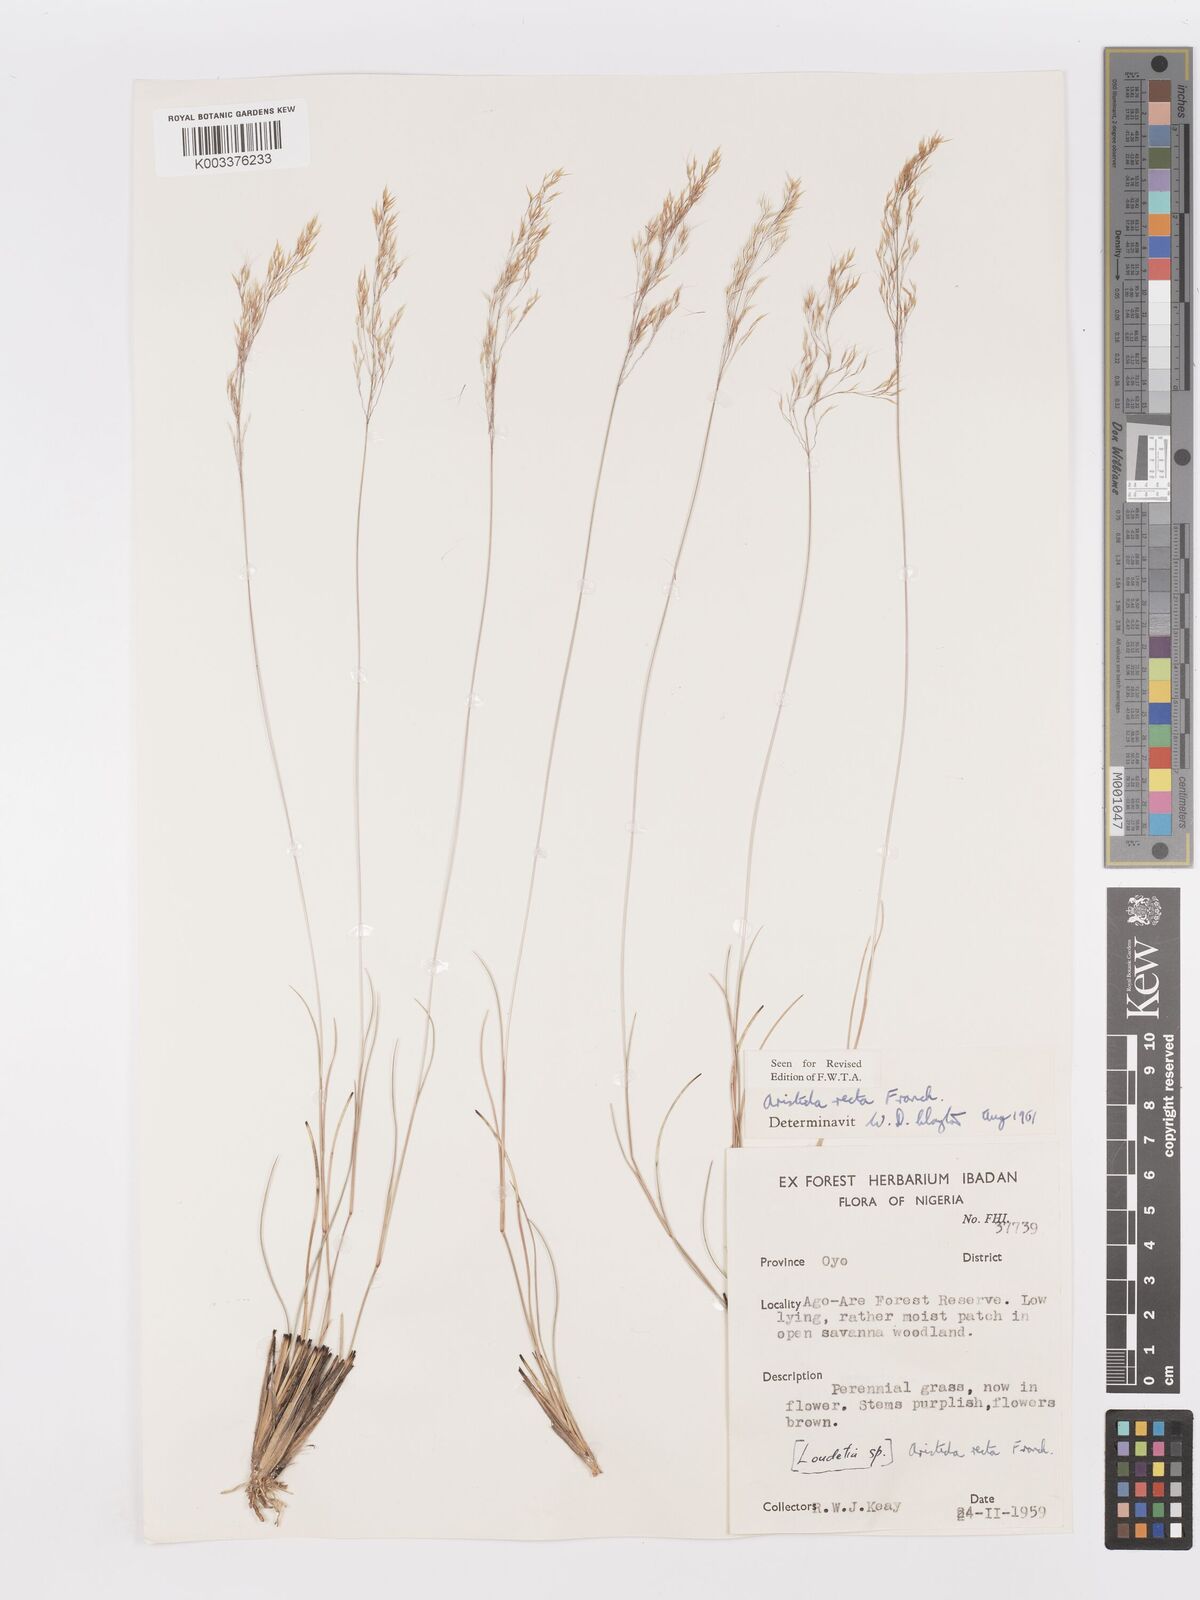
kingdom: Plantae
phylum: Tracheophyta
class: Liliopsida
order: Poales
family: Poaceae
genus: Aristida
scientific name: Aristida recta
